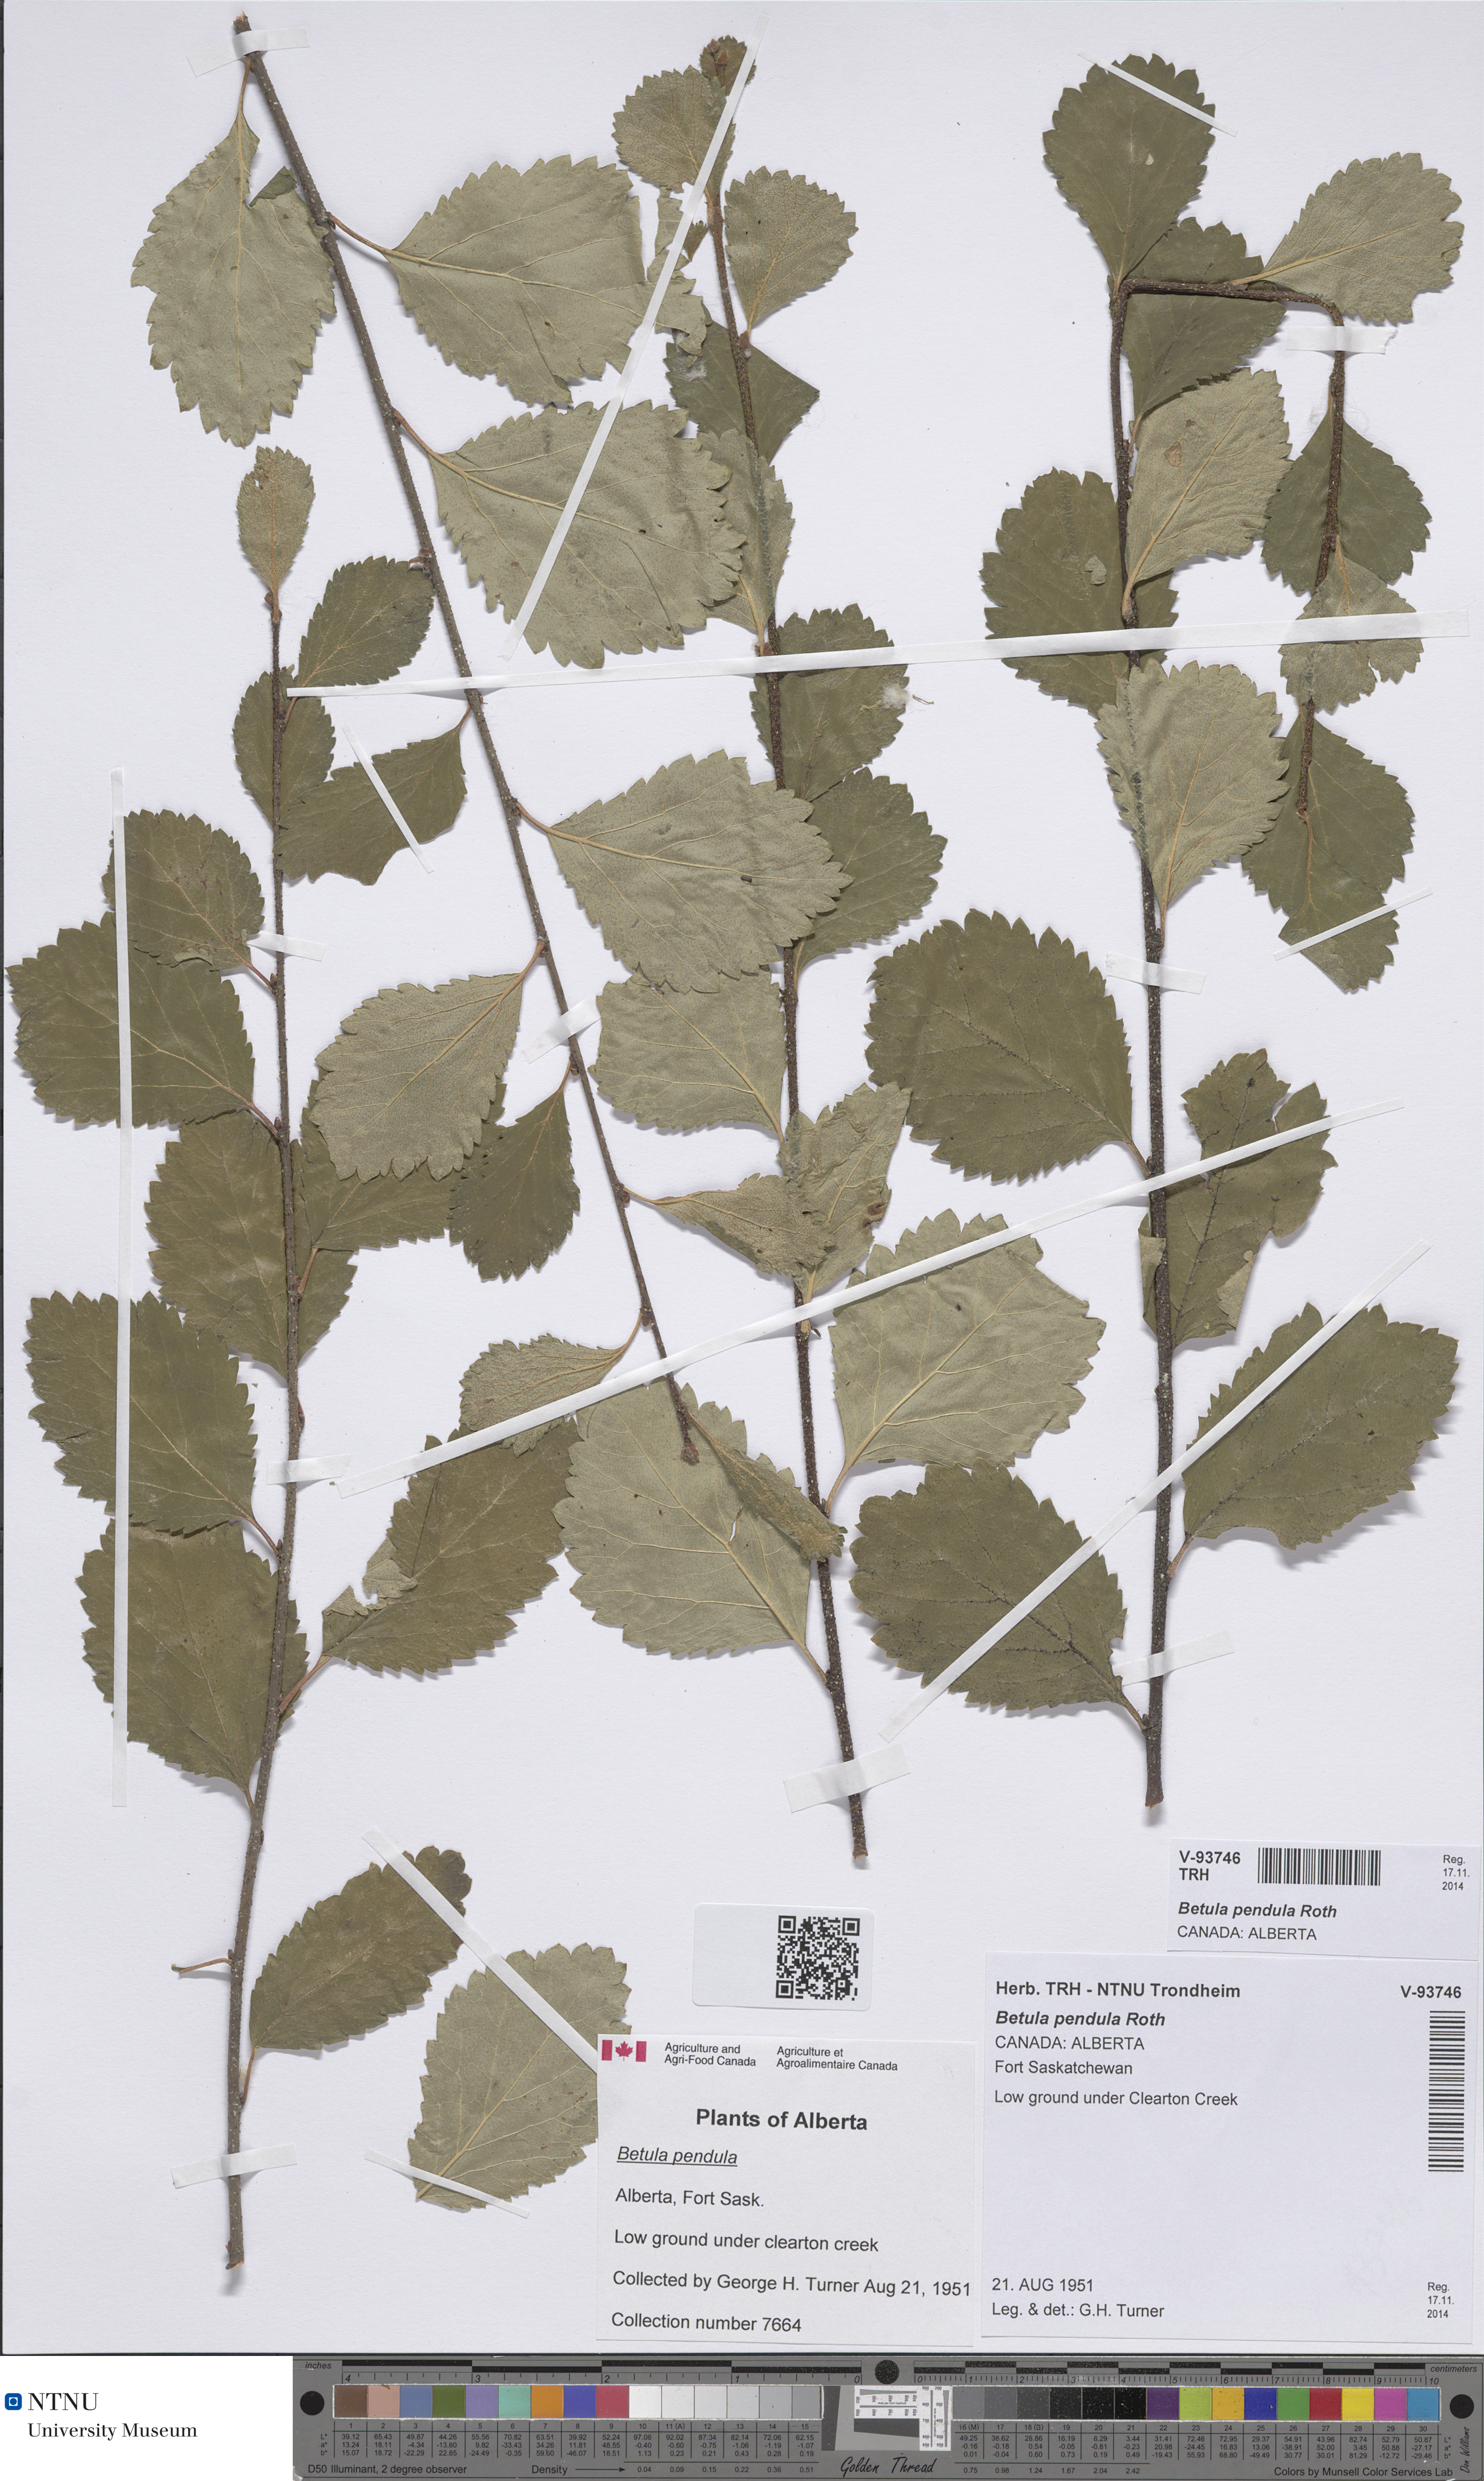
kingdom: Plantae
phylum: Tracheophyta
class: Magnoliopsida
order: Fagales
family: Betulaceae
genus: Betula
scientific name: Betula pendula
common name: Silver birch
